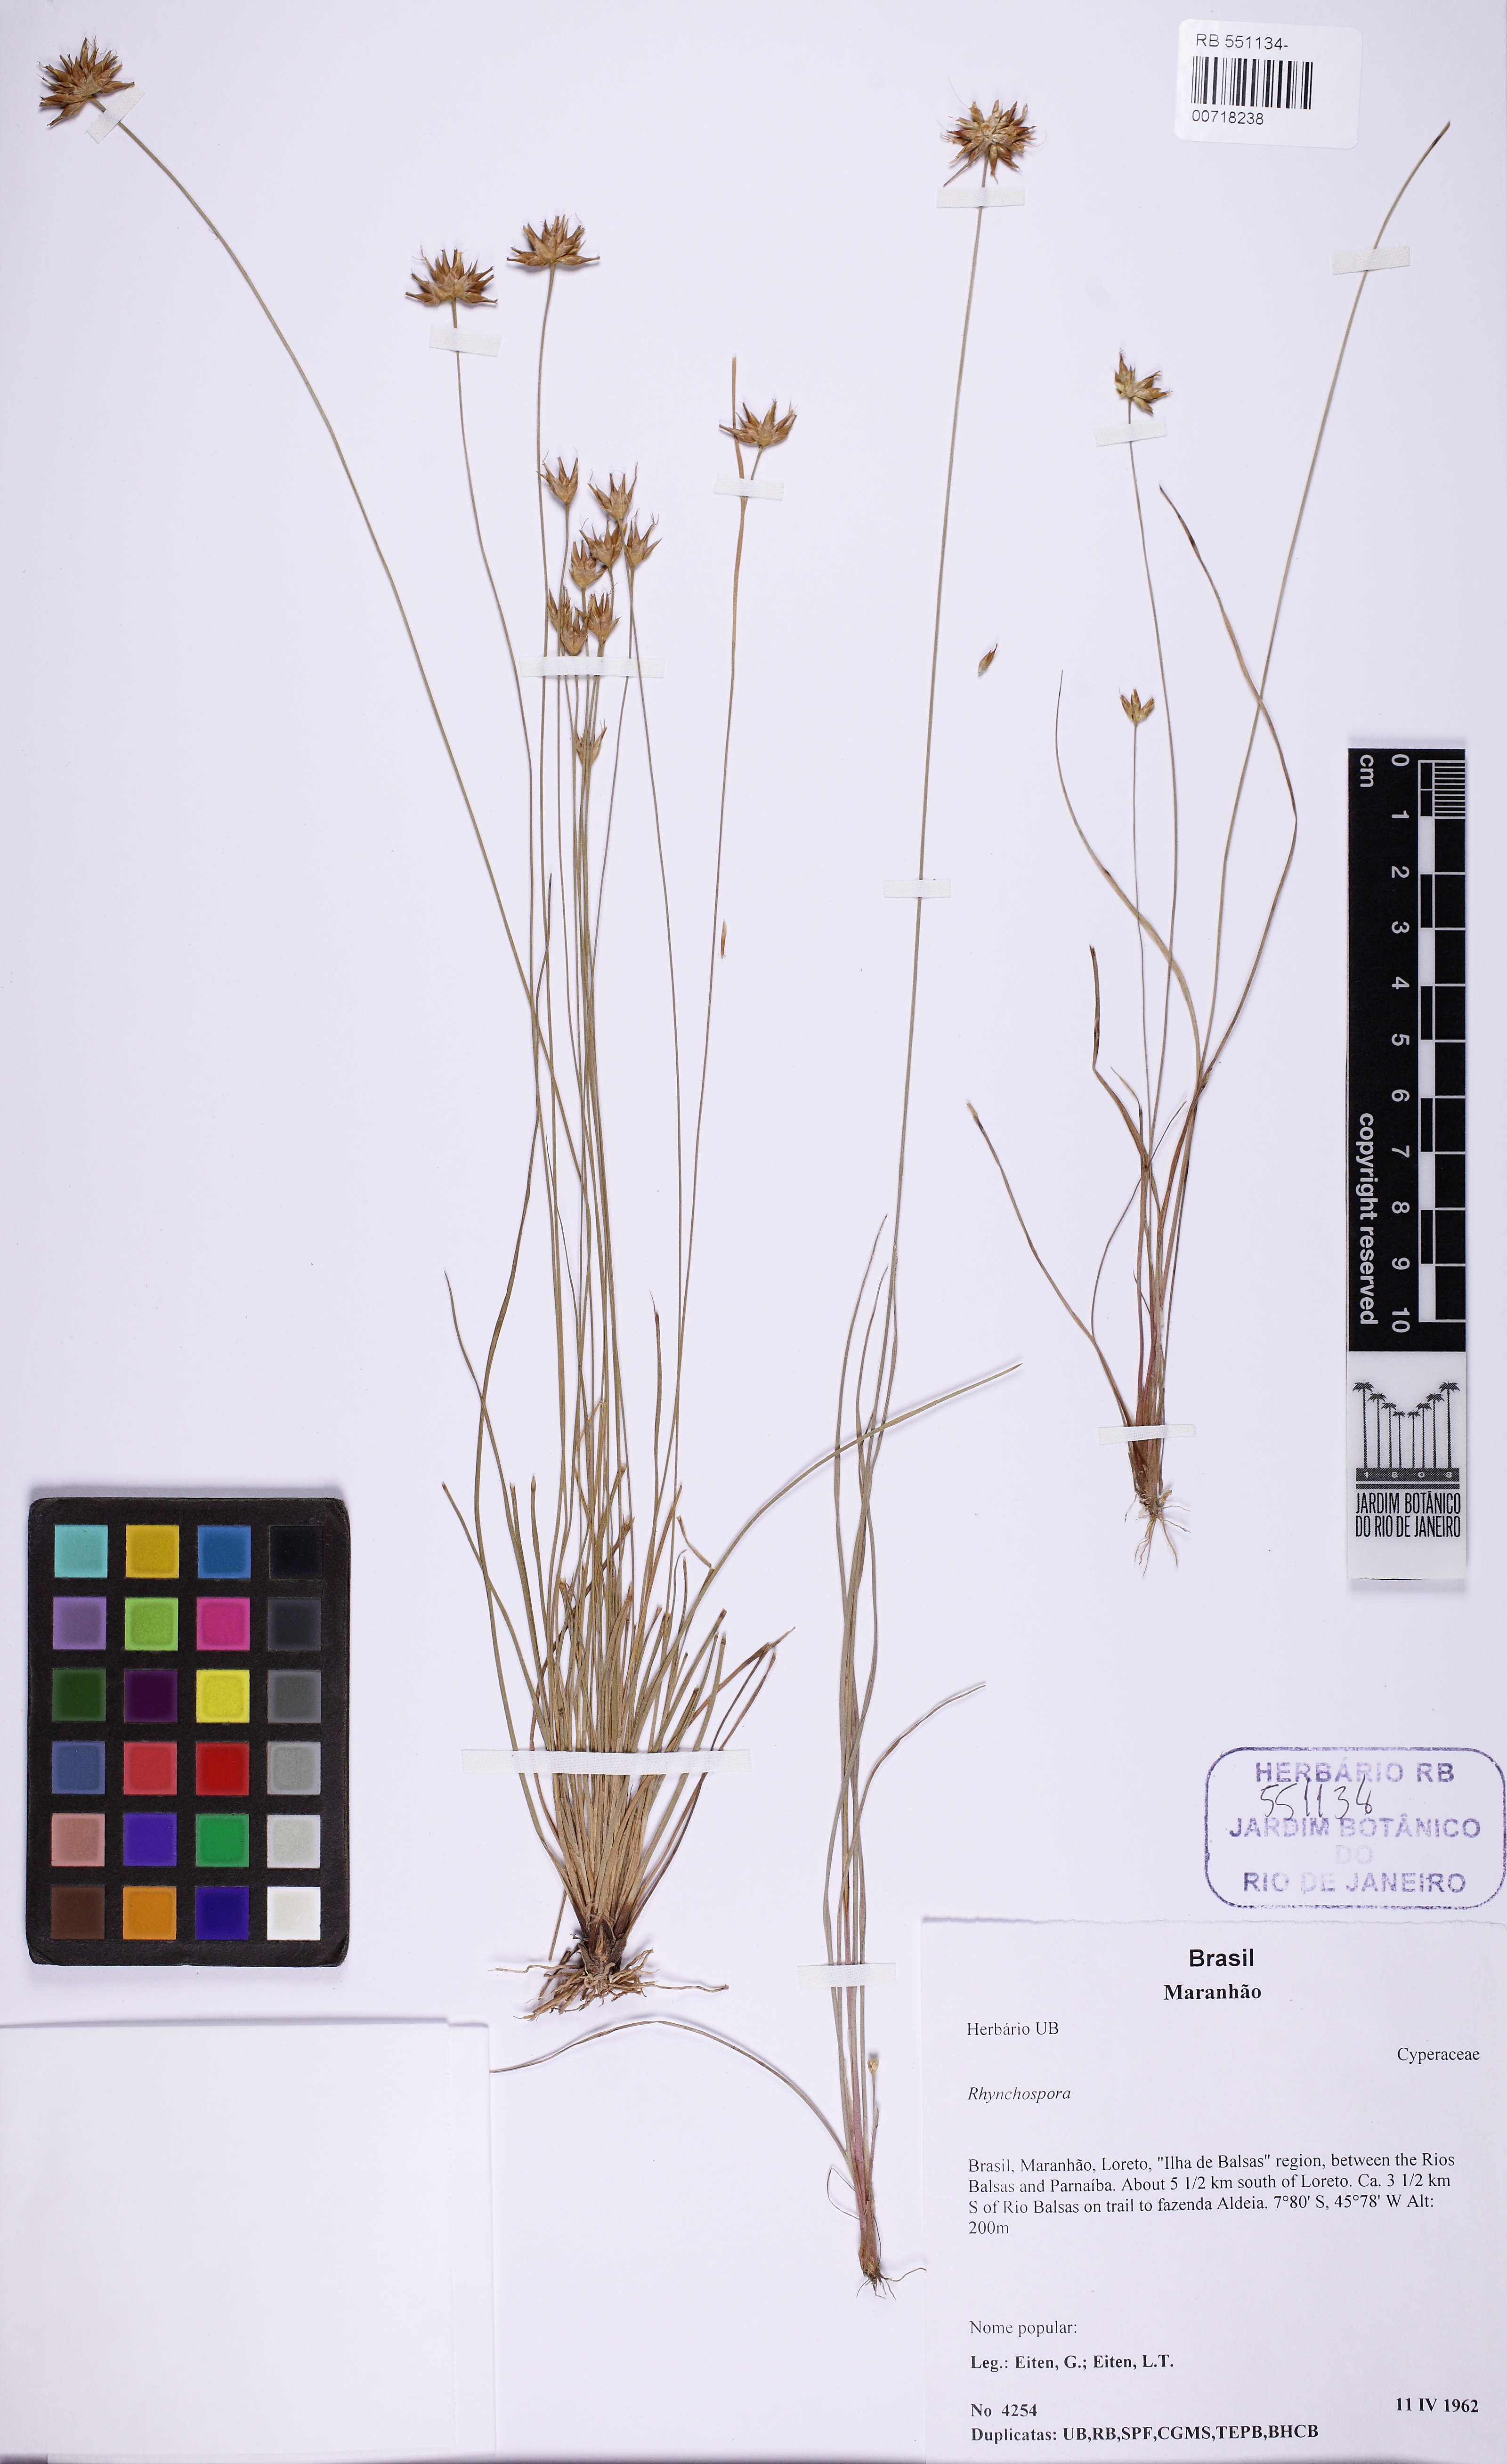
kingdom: Plantae
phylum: Tracheophyta
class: Liliopsida
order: Poales
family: Cyperaceae
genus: Rhynchospora
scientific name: Rhynchospora exilis
